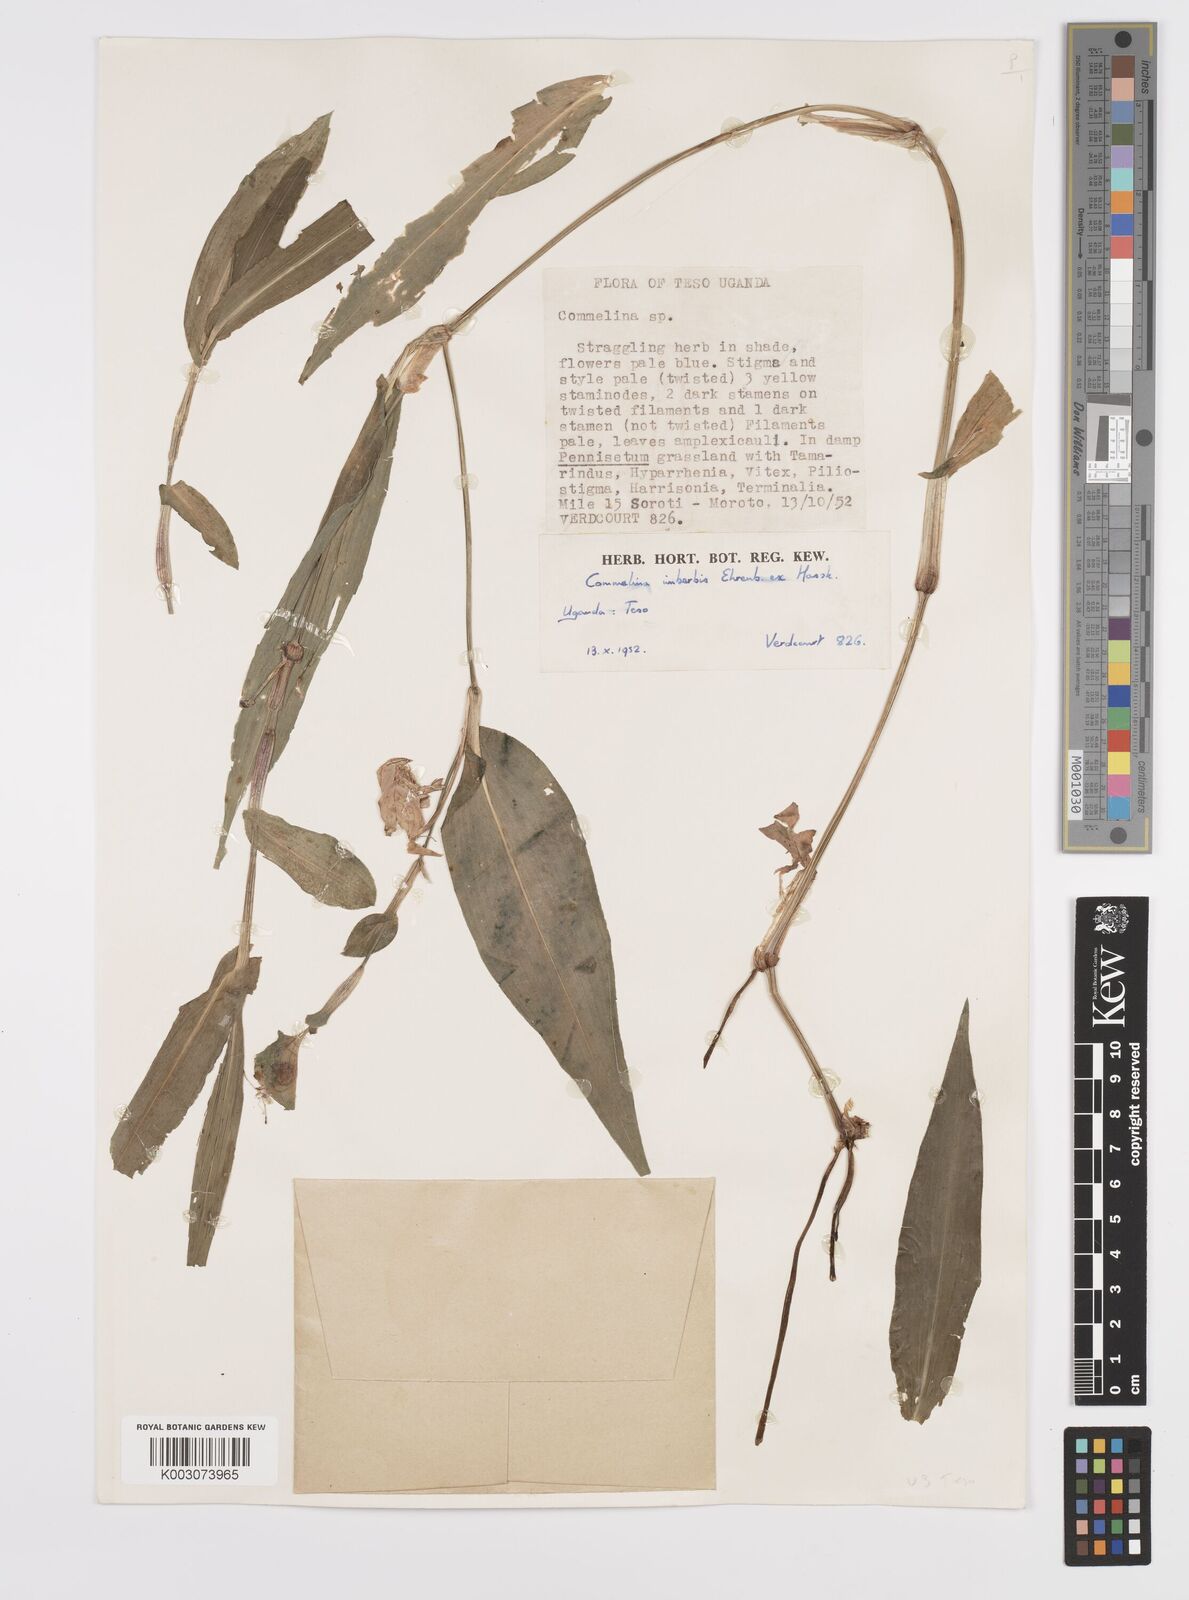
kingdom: Plantae
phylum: Tracheophyta
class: Liliopsida
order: Commelinales
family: Commelinaceae
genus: Commelina
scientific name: Commelina imberbis
